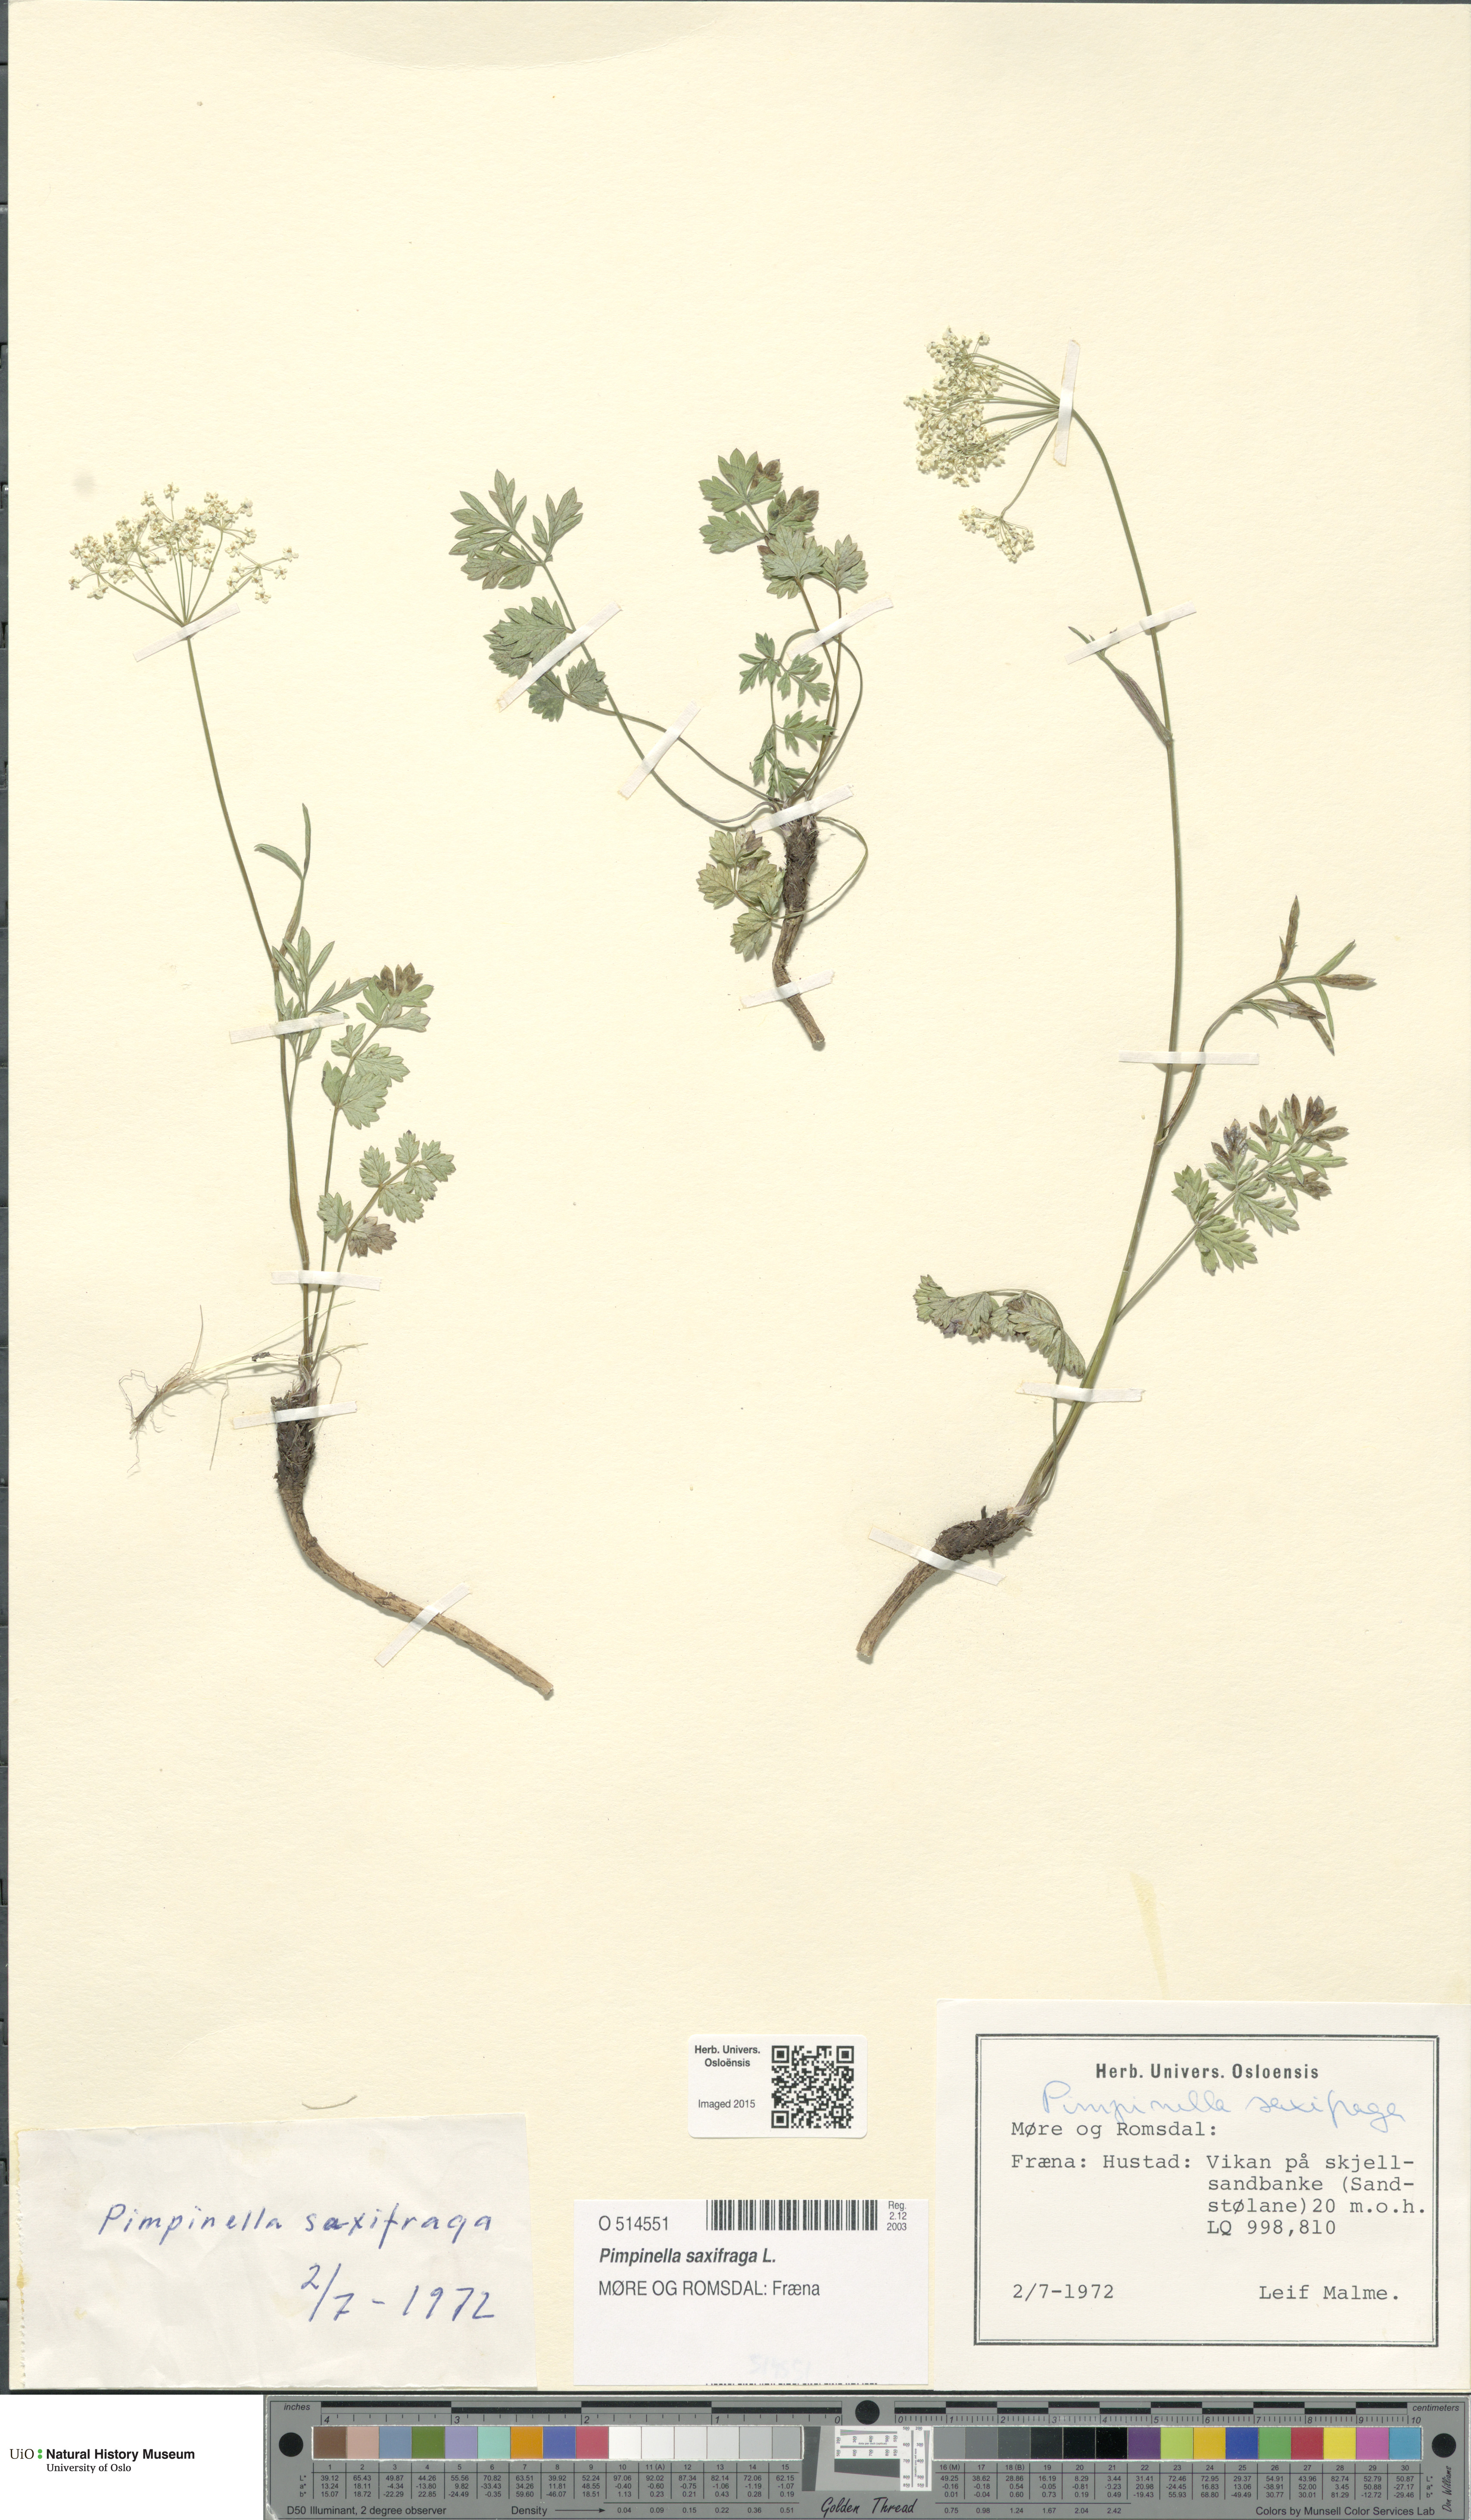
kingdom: Plantae
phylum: Tracheophyta
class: Magnoliopsida
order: Apiales
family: Apiaceae
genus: Pimpinella
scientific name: Pimpinella saxifraga
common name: Burnet-saxifrage
